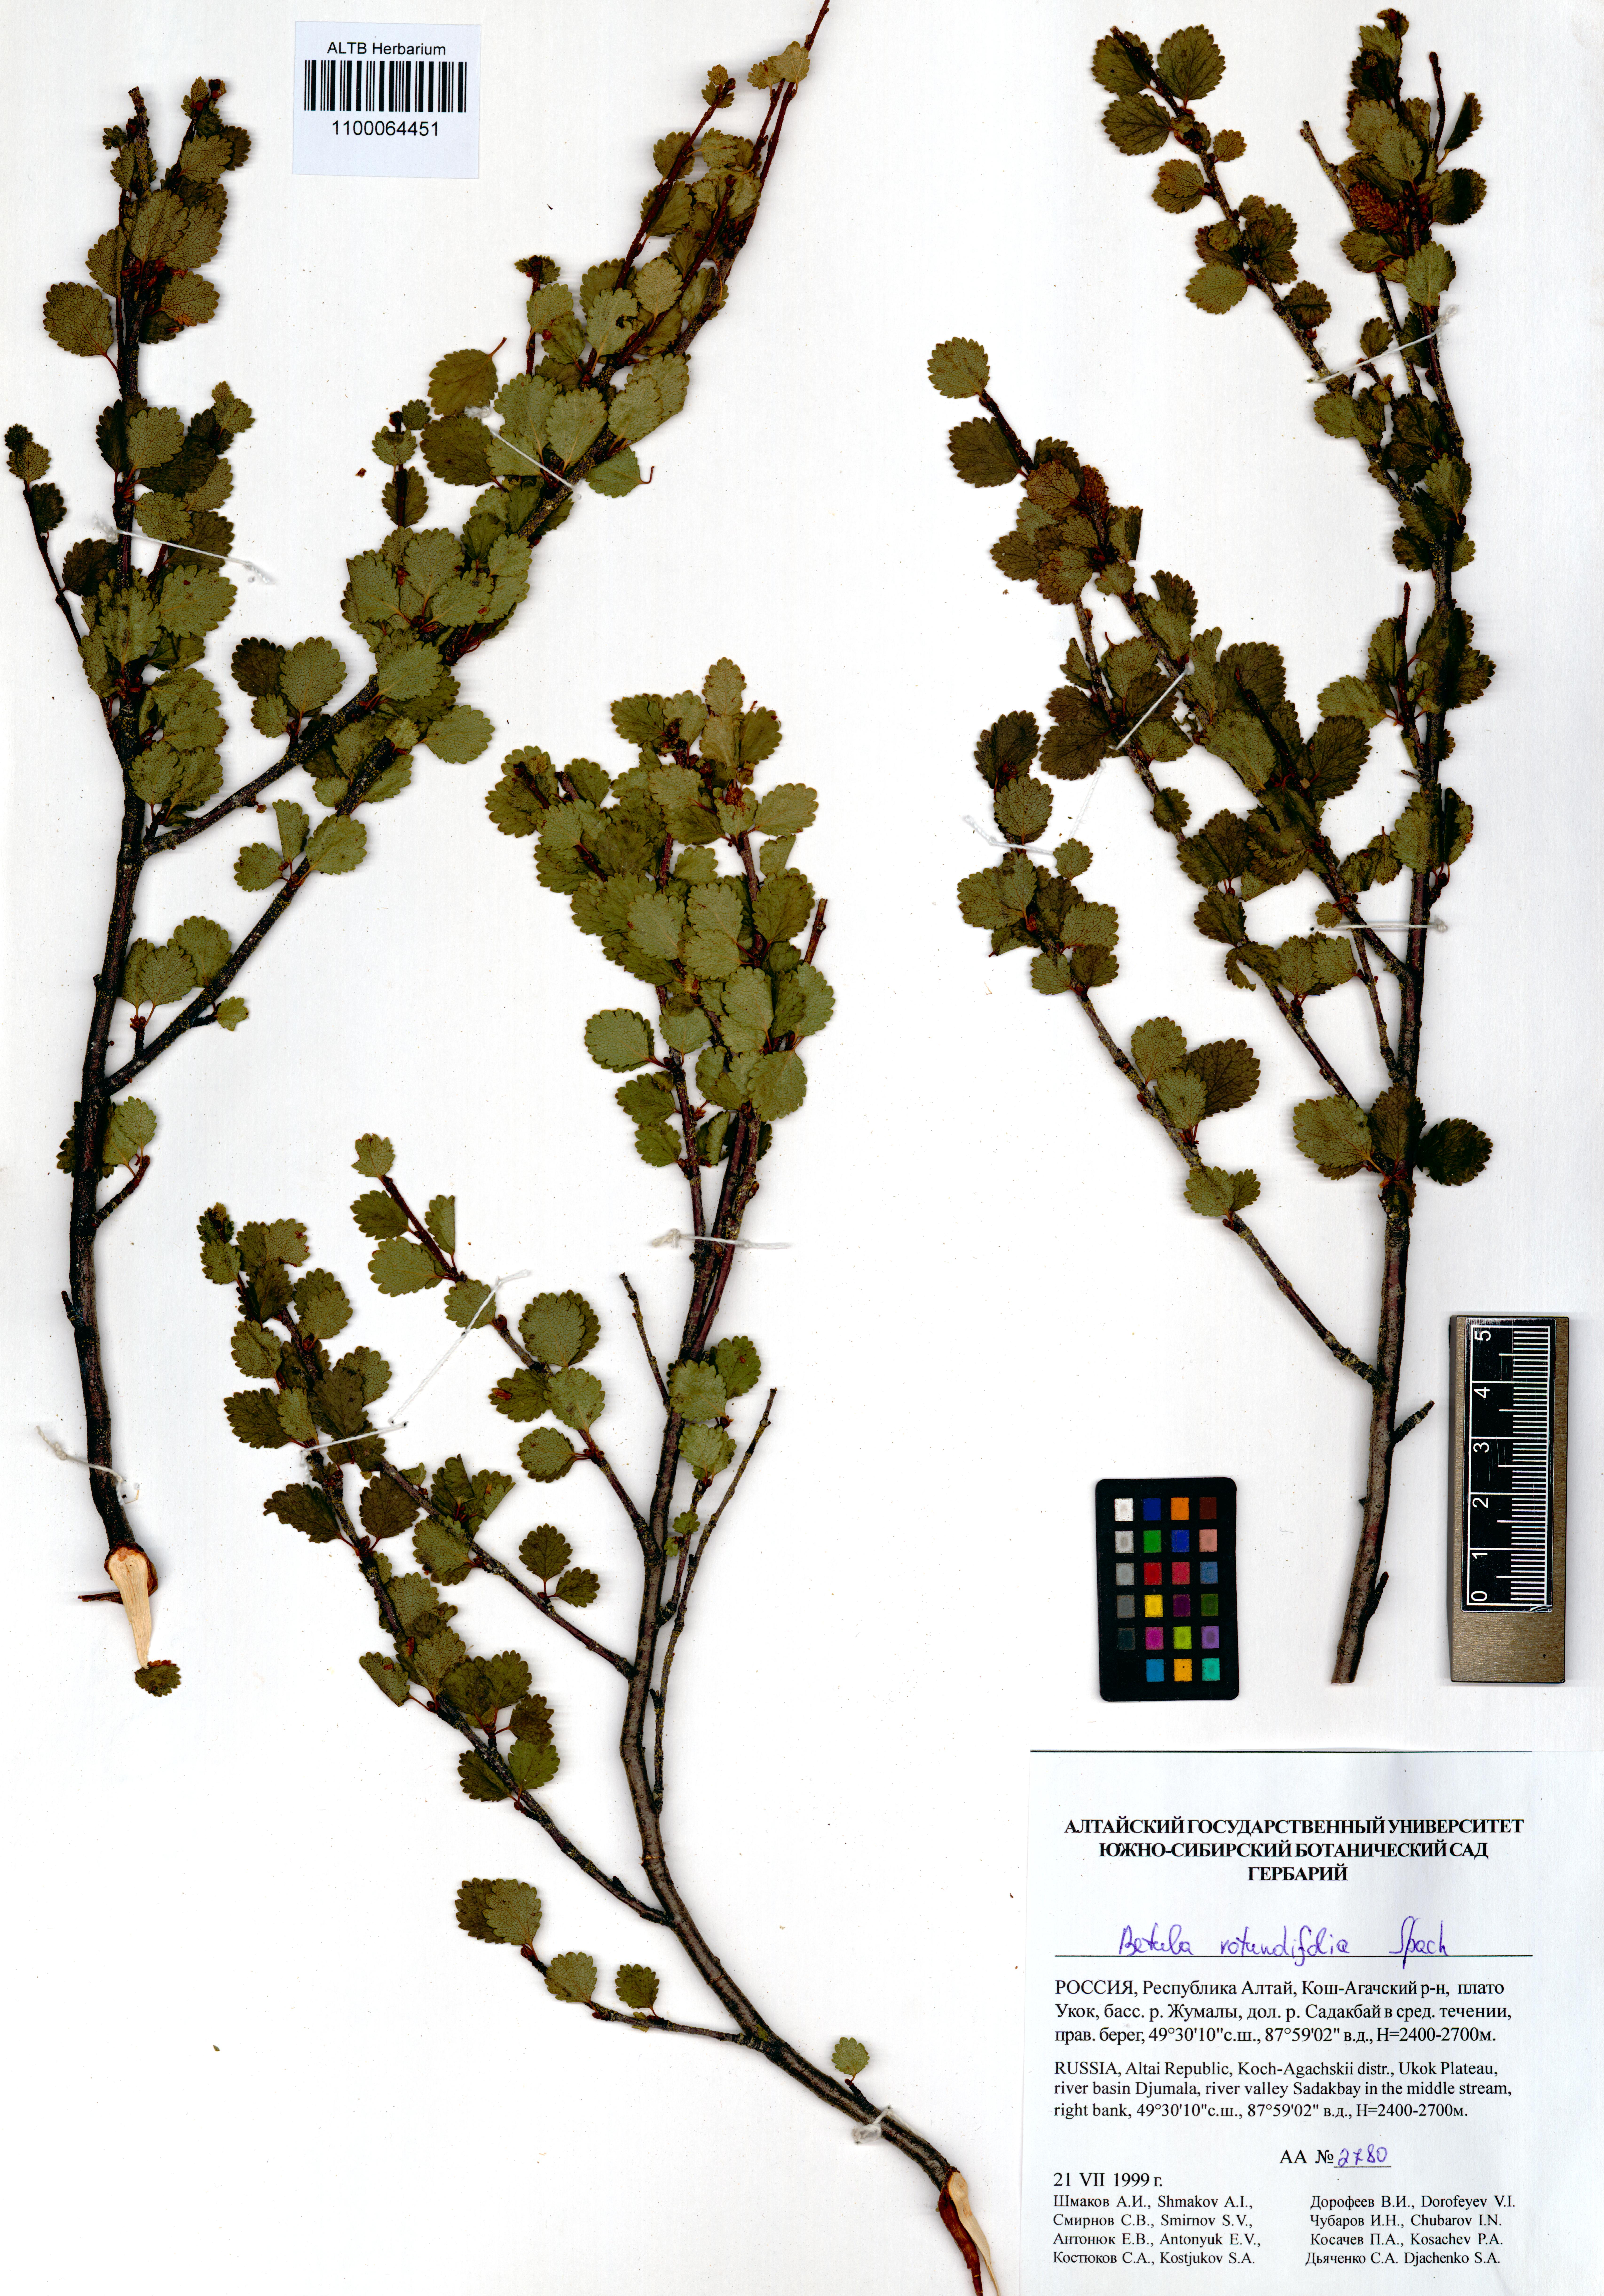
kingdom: Plantae
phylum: Tracheophyta
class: Magnoliopsida
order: Fagales
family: Betulaceae
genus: Betula
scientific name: Betula glandulosa
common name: Dwarf birch
